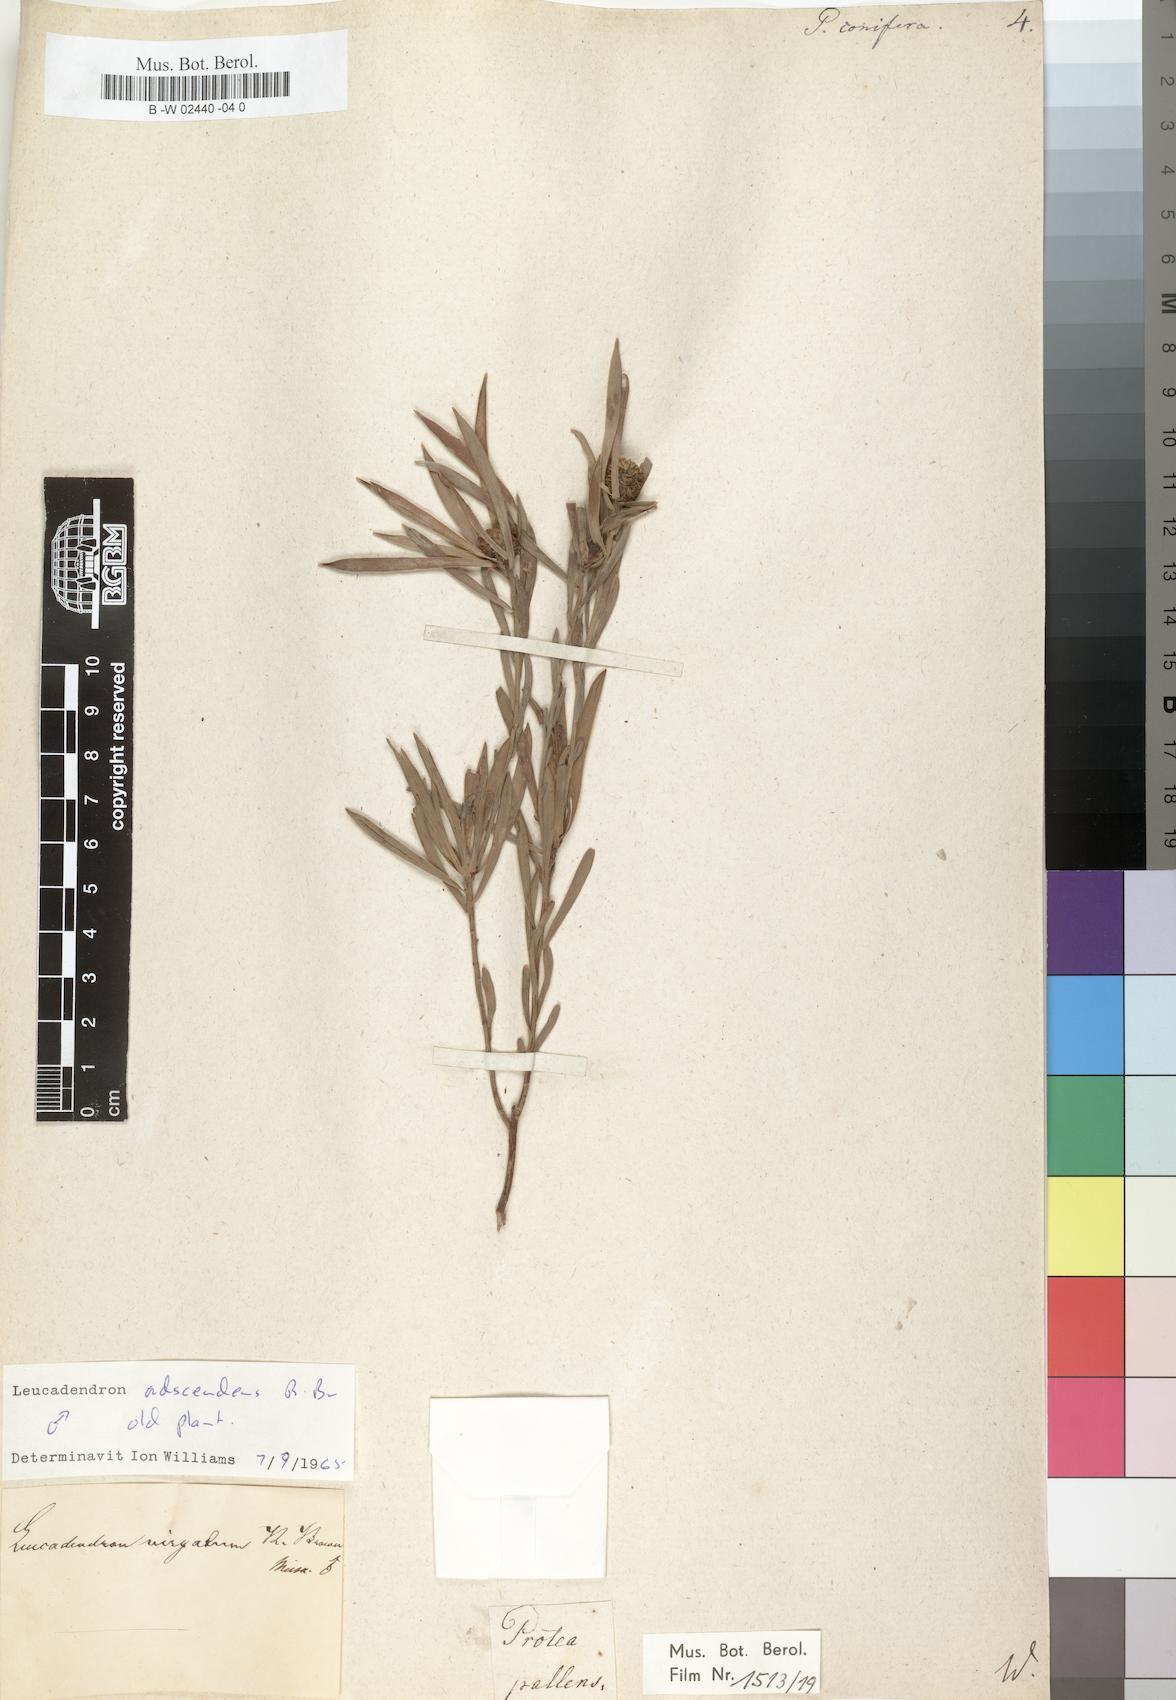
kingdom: Plantae
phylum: Tracheophyta
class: Magnoliopsida
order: Proteales
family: Proteaceae
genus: Leucadendron
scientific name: Leucadendron
